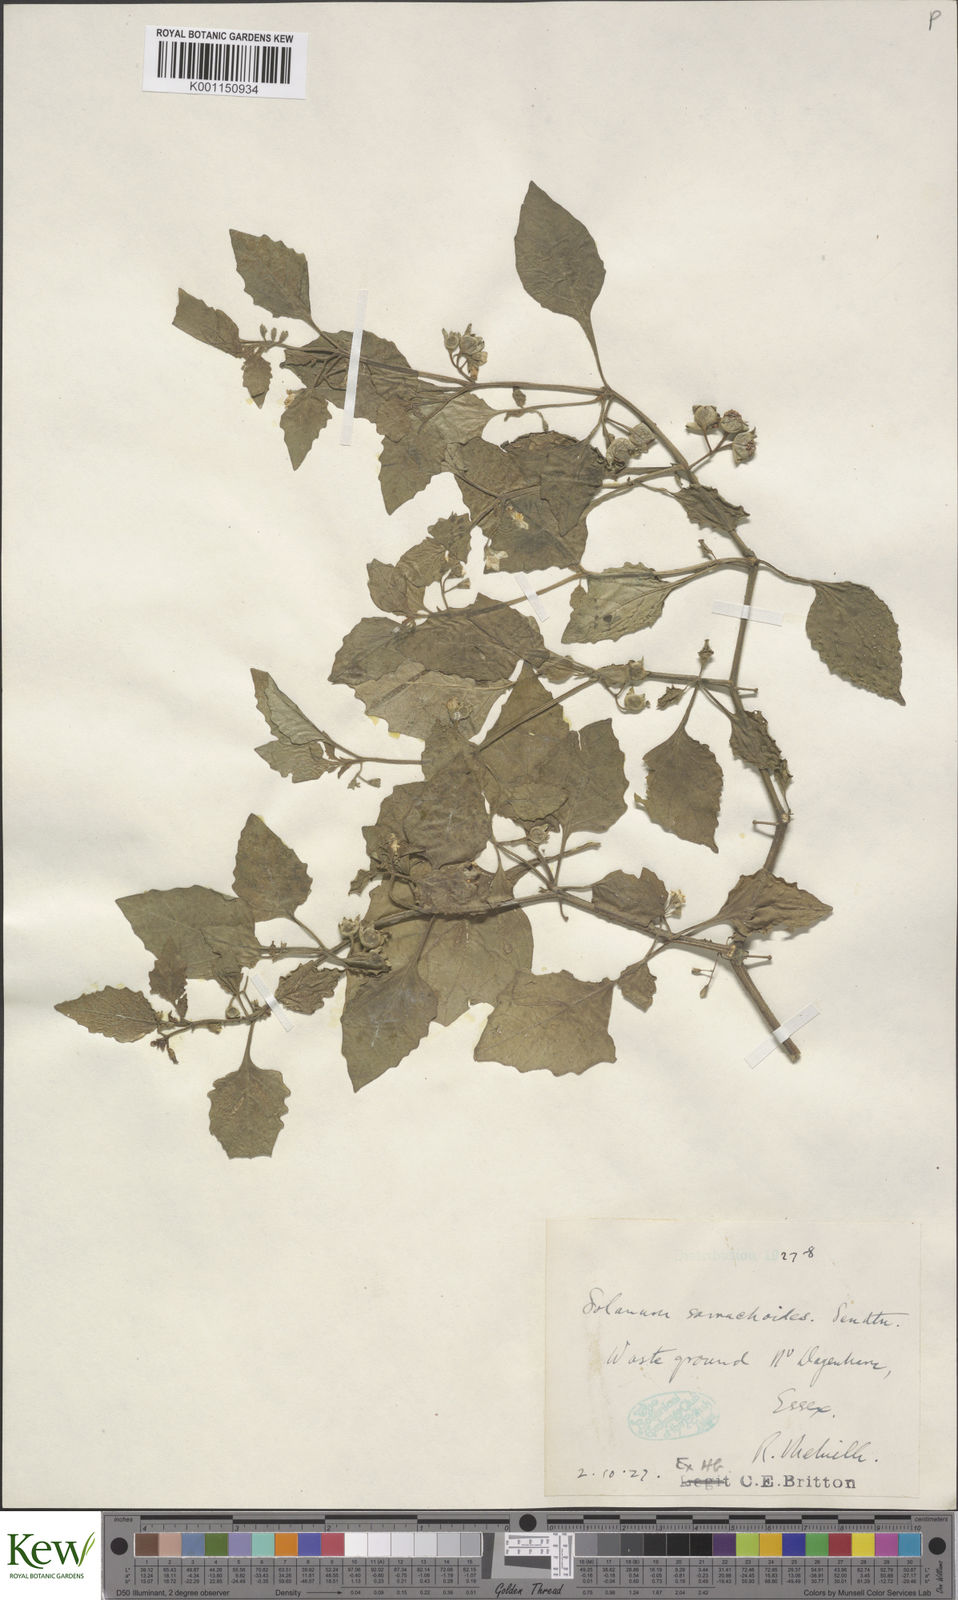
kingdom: Plantae
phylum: Tracheophyta
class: Magnoliopsida
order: Solanales
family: Solanaceae
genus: Solanum
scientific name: Solanum sarrachoides
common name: Leafy-fruited nightshade
